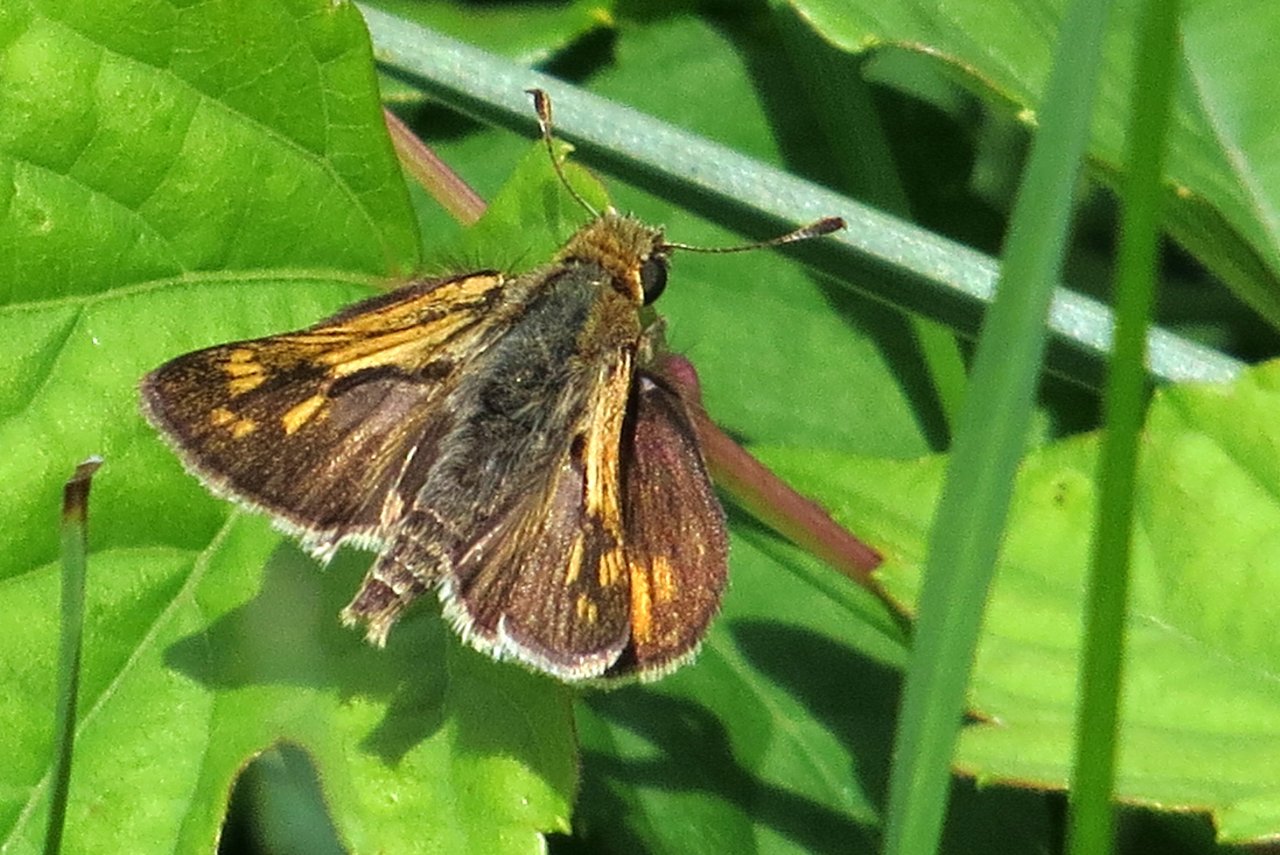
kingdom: Animalia
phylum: Arthropoda
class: Insecta
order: Lepidoptera
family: Hesperiidae
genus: Polites
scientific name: Polites coras
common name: Peck's Skipper
